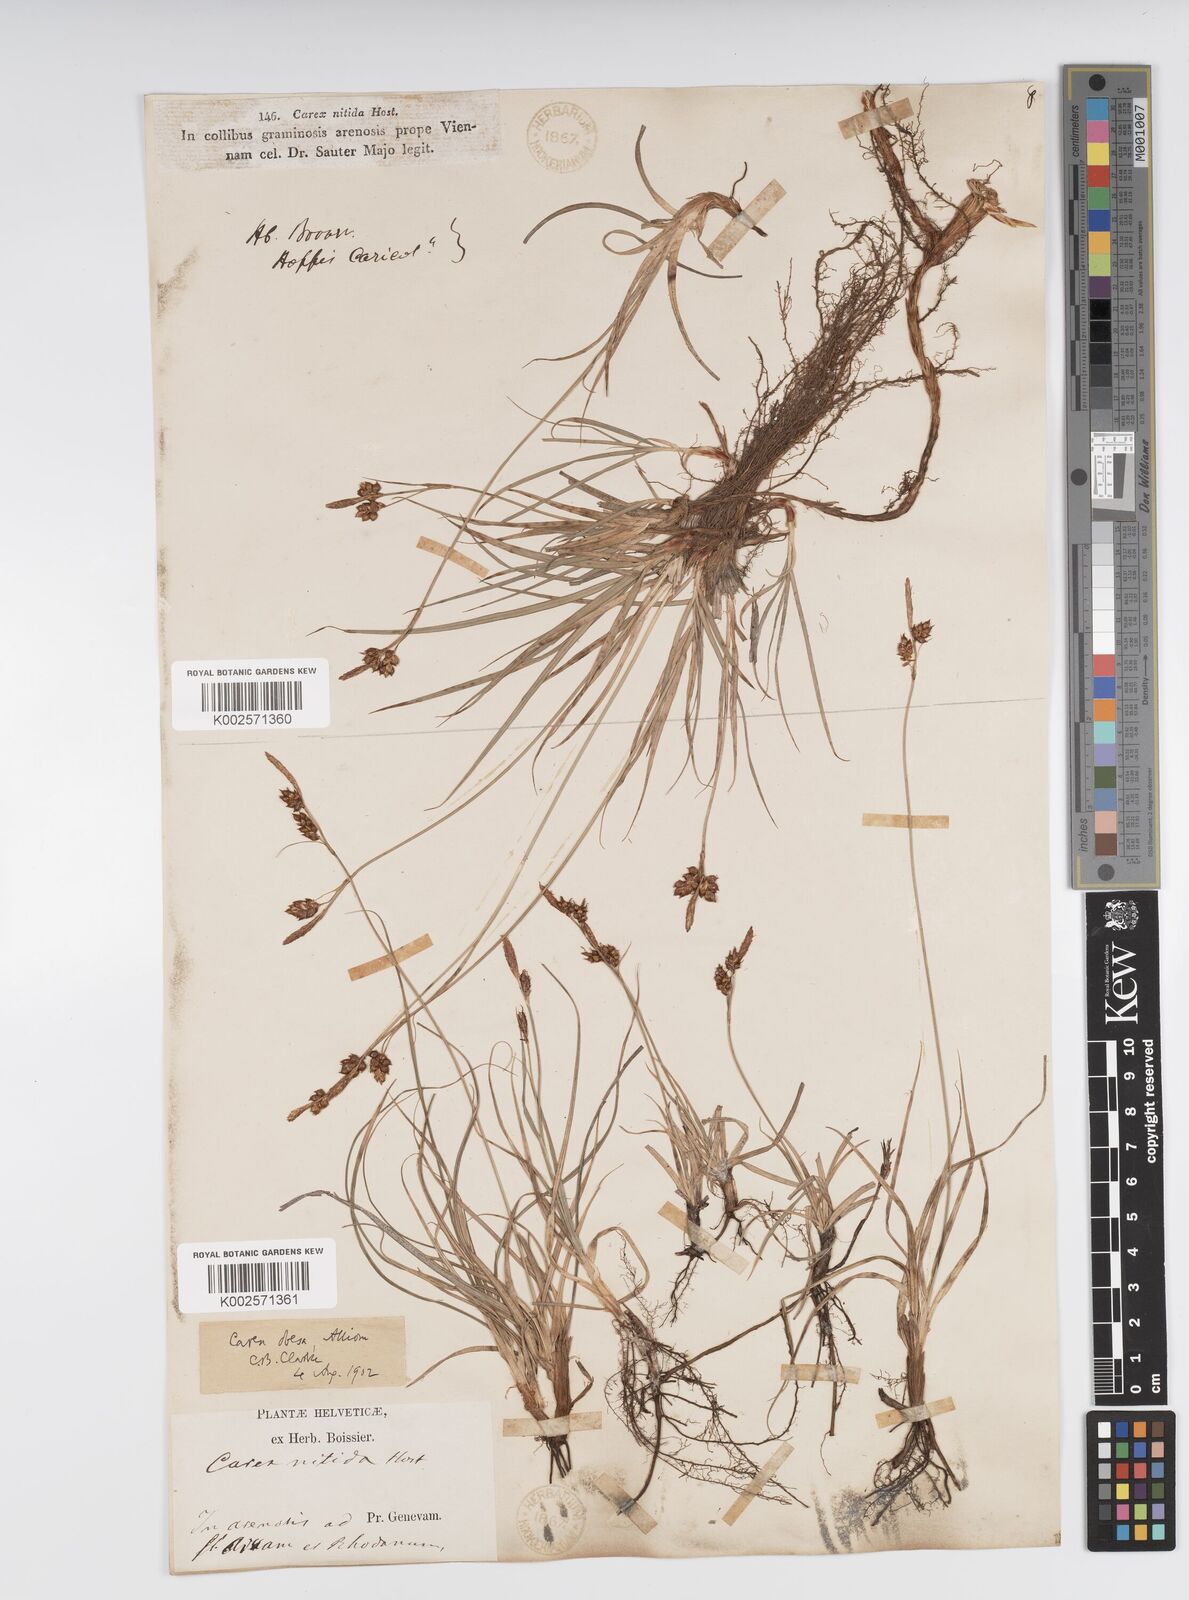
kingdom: Plantae
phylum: Tracheophyta
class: Liliopsida
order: Poales
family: Cyperaceae
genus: Carex
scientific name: Carex liparocarpos
